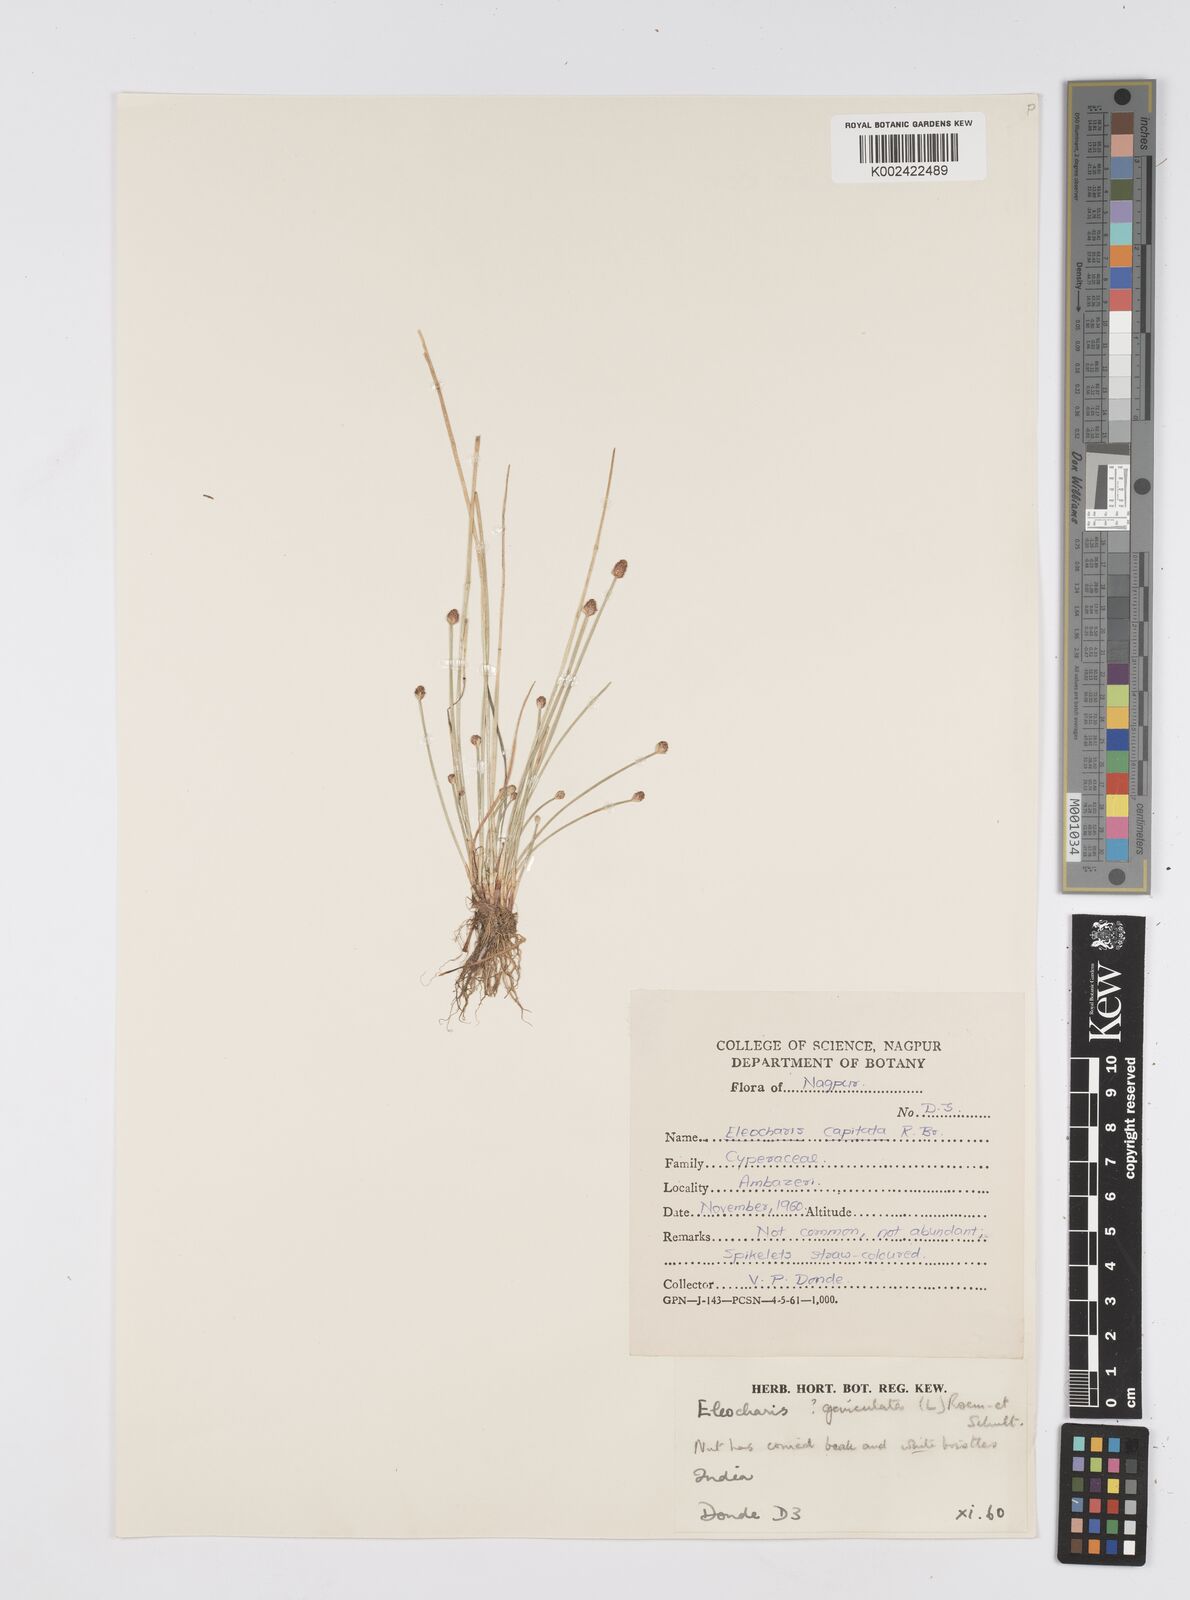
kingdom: Plantae
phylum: Tracheophyta
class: Liliopsida
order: Poales
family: Cyperaceae
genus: Eleocharis
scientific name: Eleocharis geniculata
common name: Canada spikesedge
